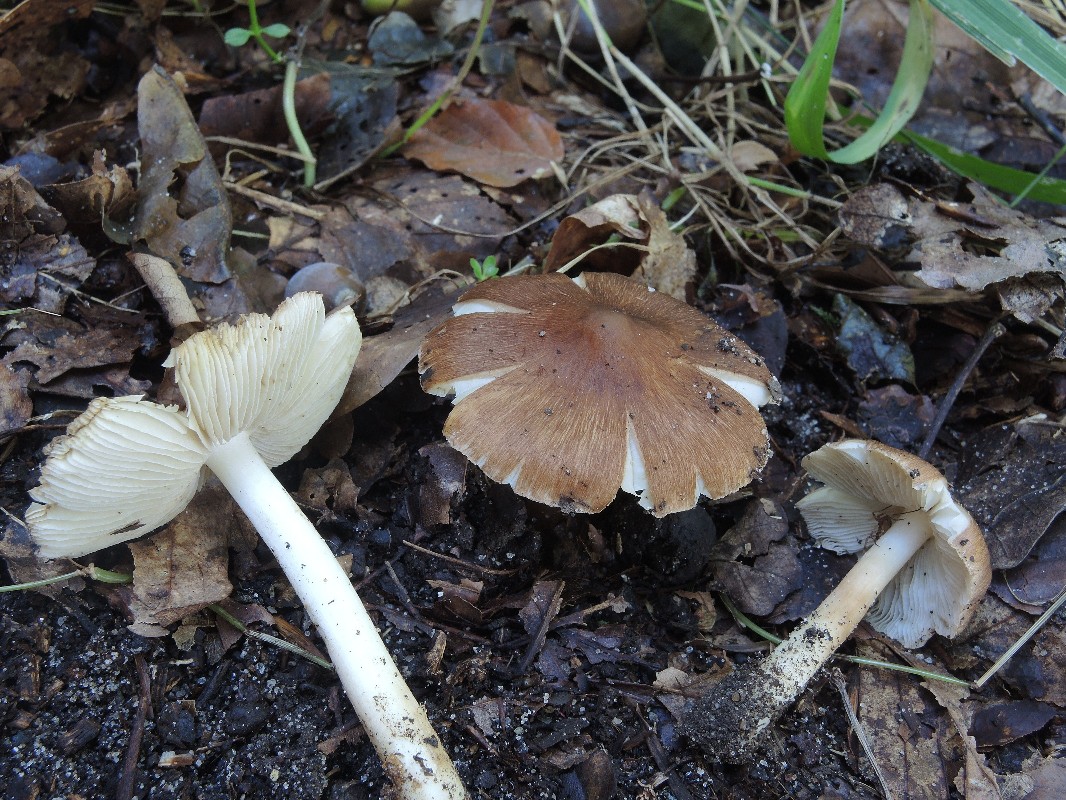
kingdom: Fungi
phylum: Basidiomycota
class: Agaricomycetes
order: Agaricales
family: Inocybaceae
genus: Inosperma
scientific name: Inosperma
